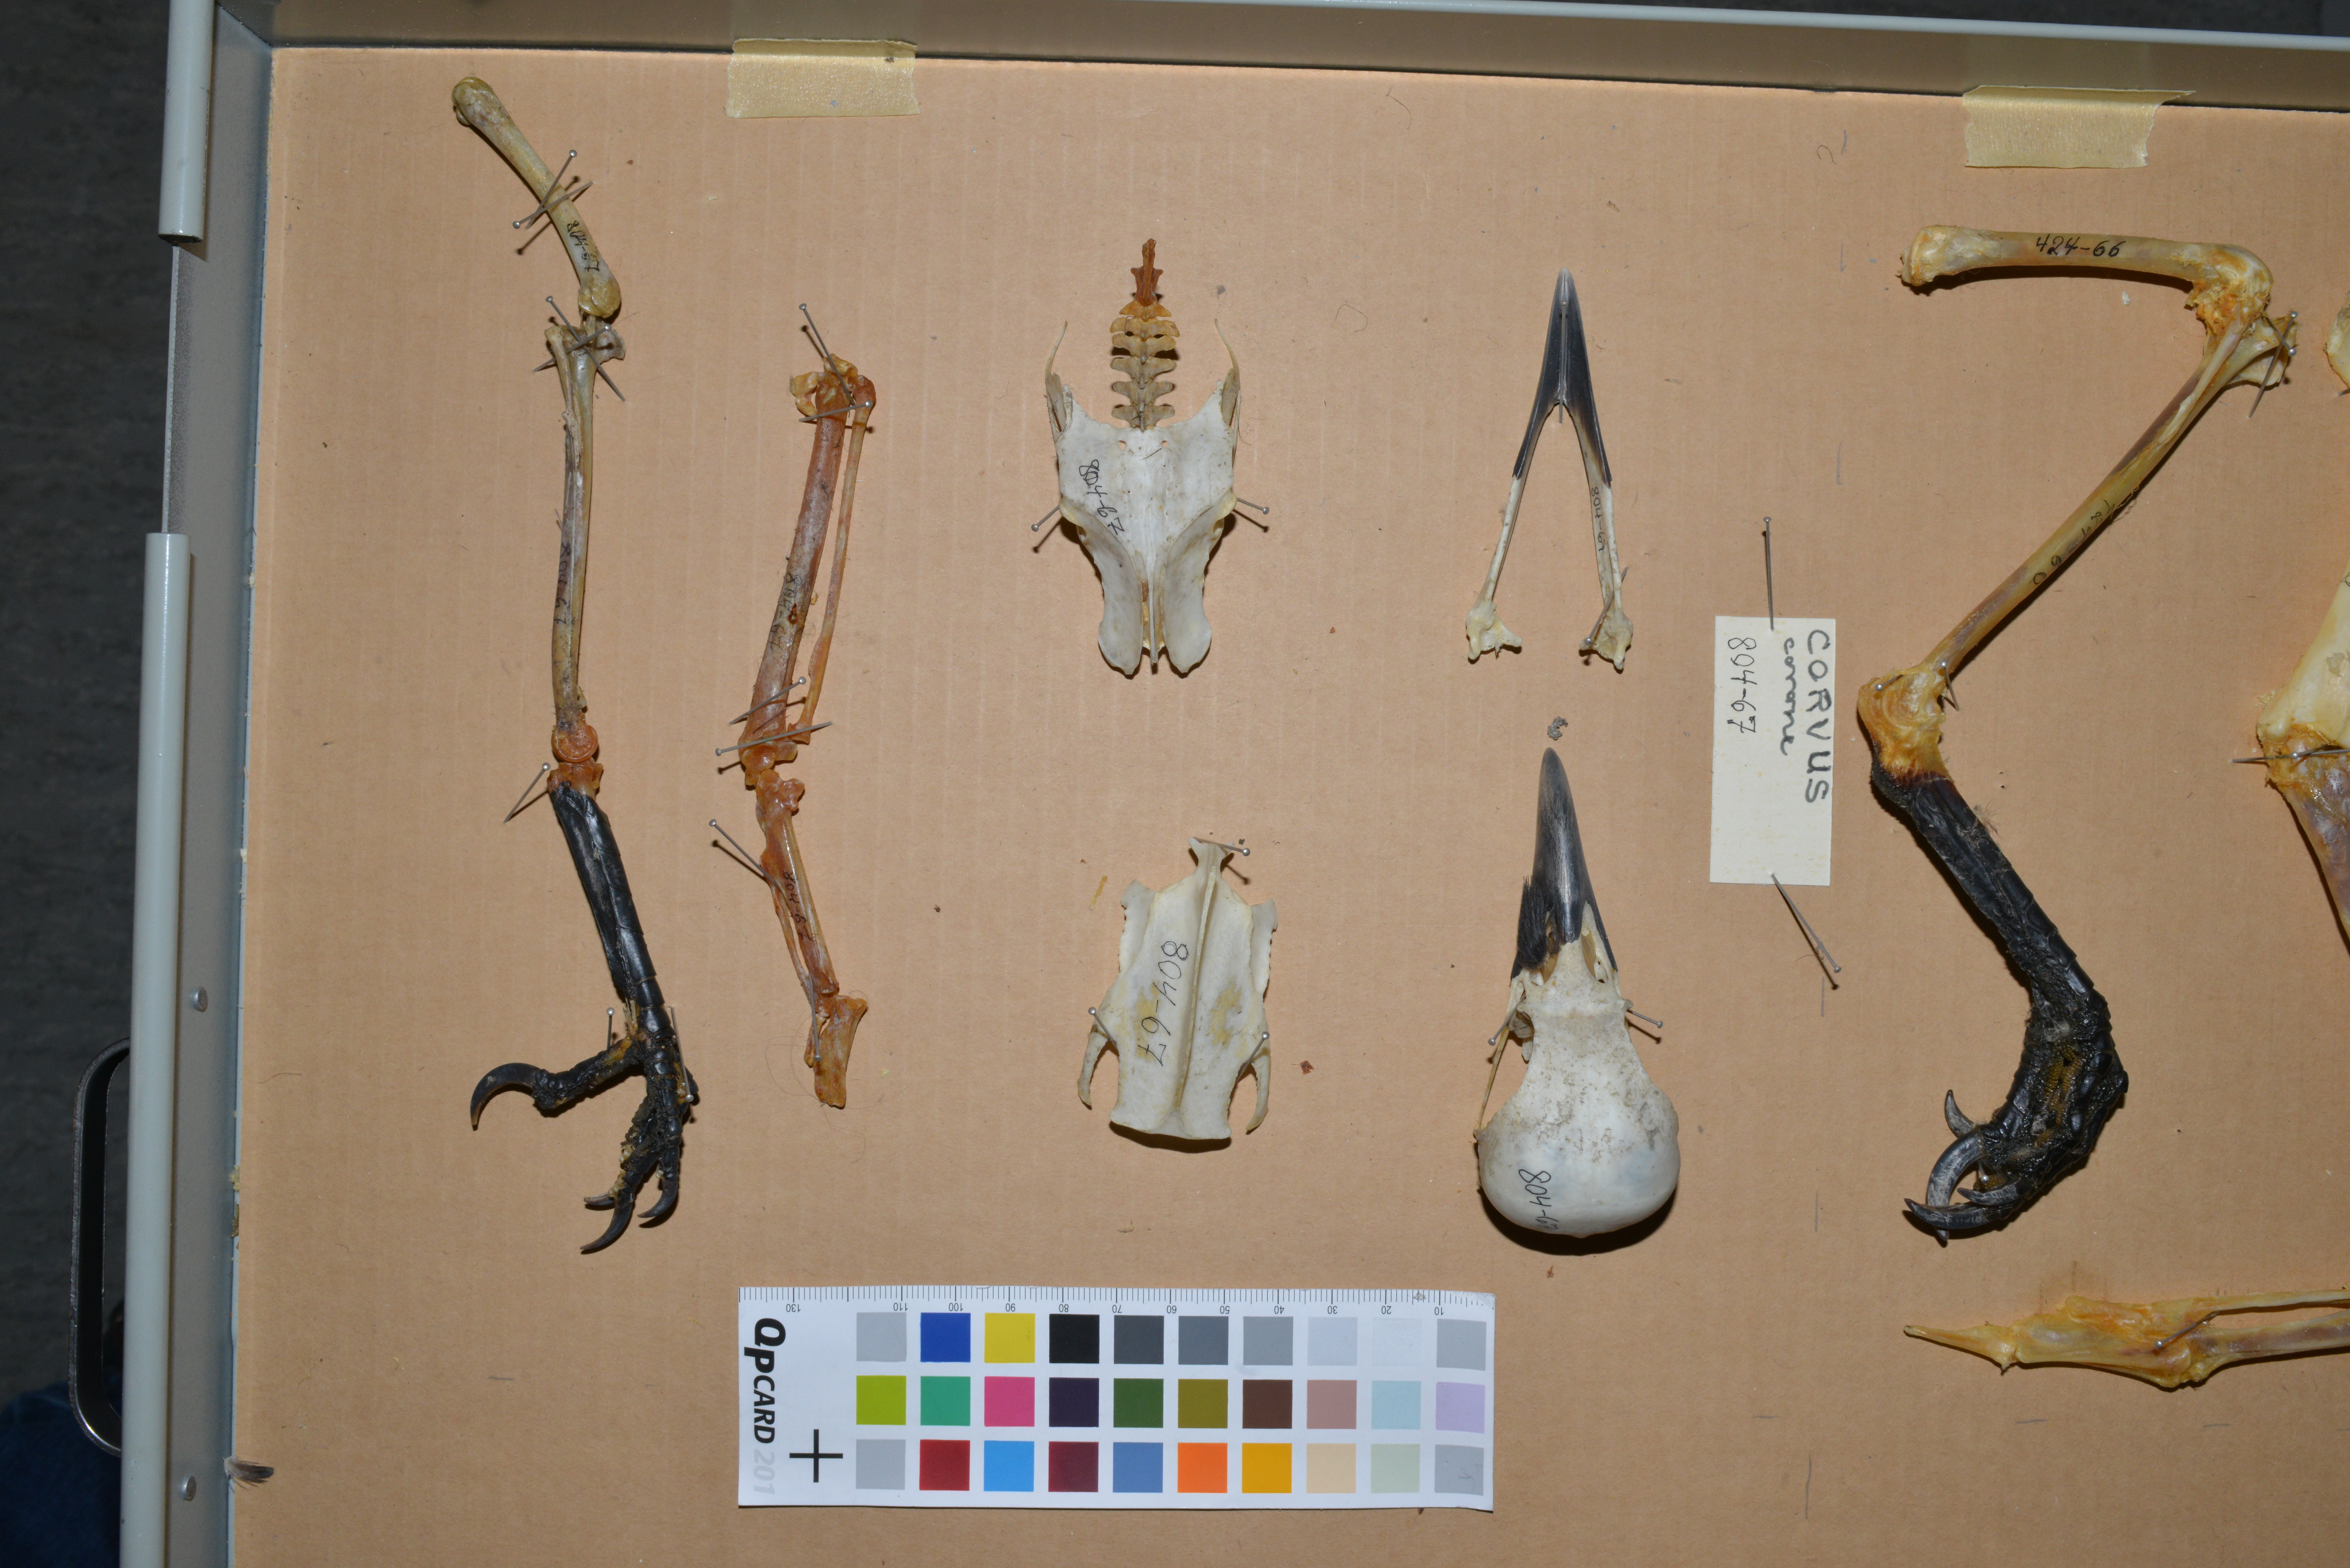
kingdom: Animalia
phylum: Chordata
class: Aves
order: Passeriformes
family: Corvidae
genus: Corvus
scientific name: Corvus cornix
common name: Hooded crow
